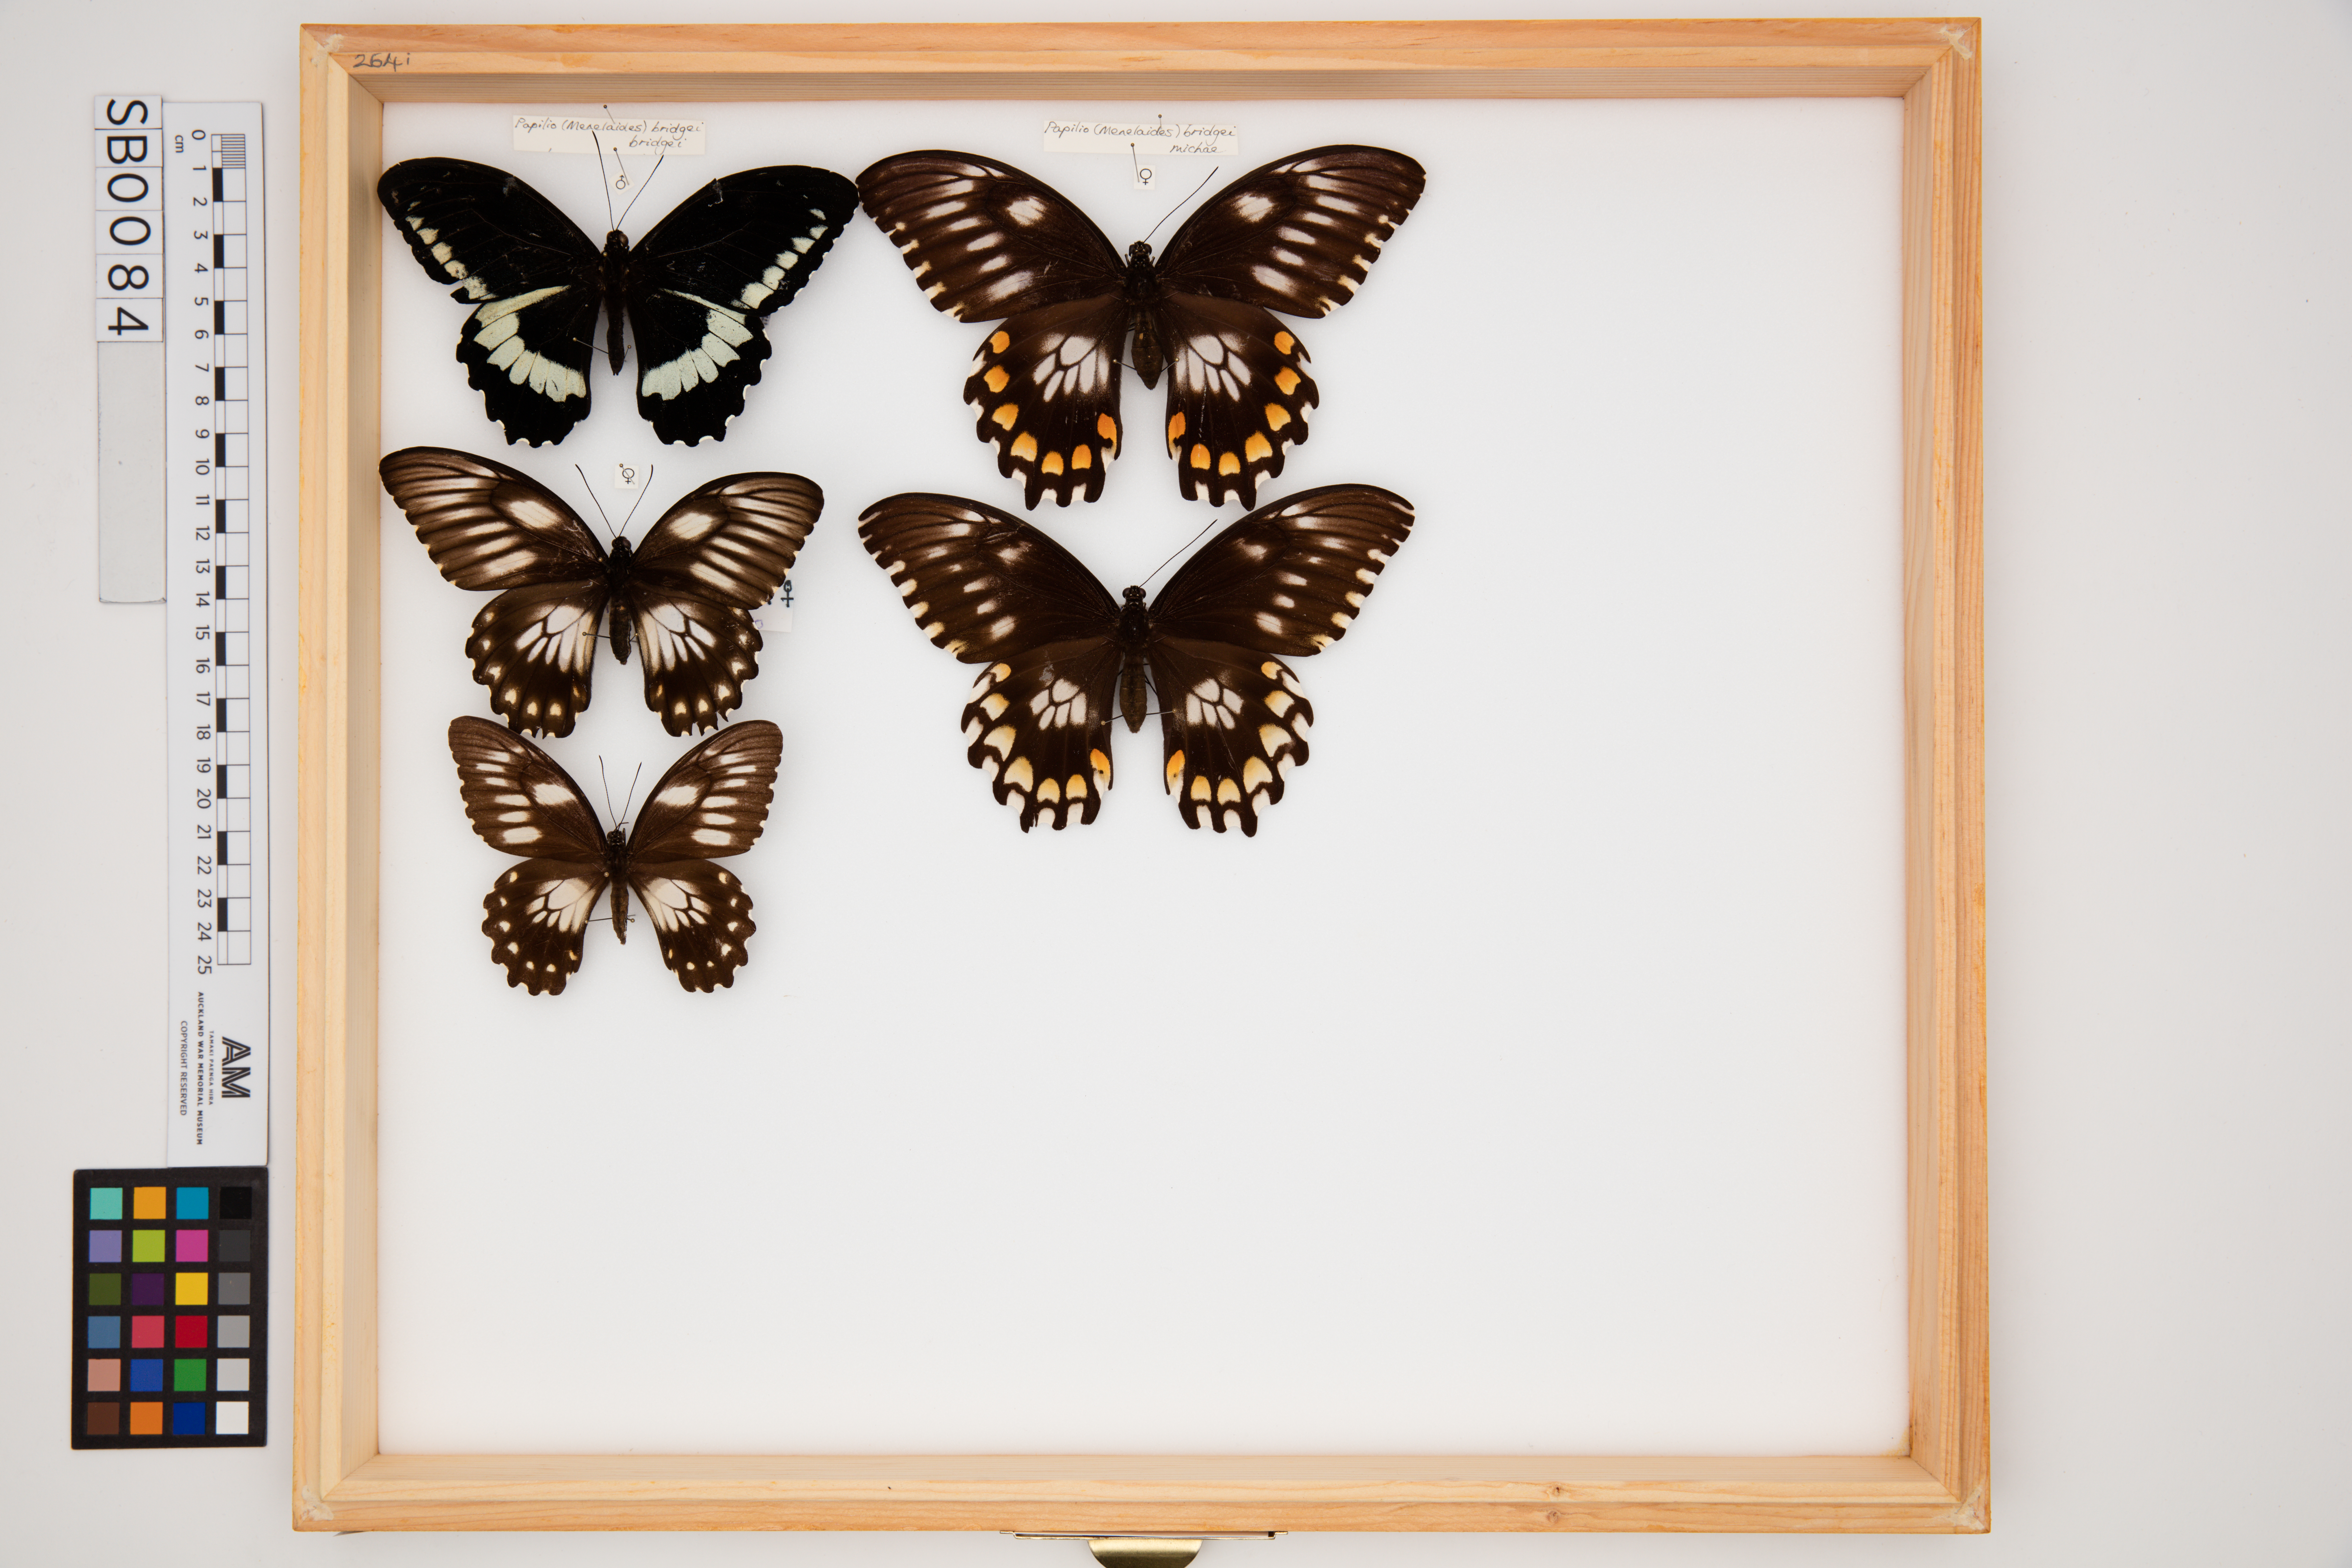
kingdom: Animalia
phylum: Arthropoda
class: Insecta
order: Lepidoptera
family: Papilionidae
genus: Papilio
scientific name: Papilio bridgei
